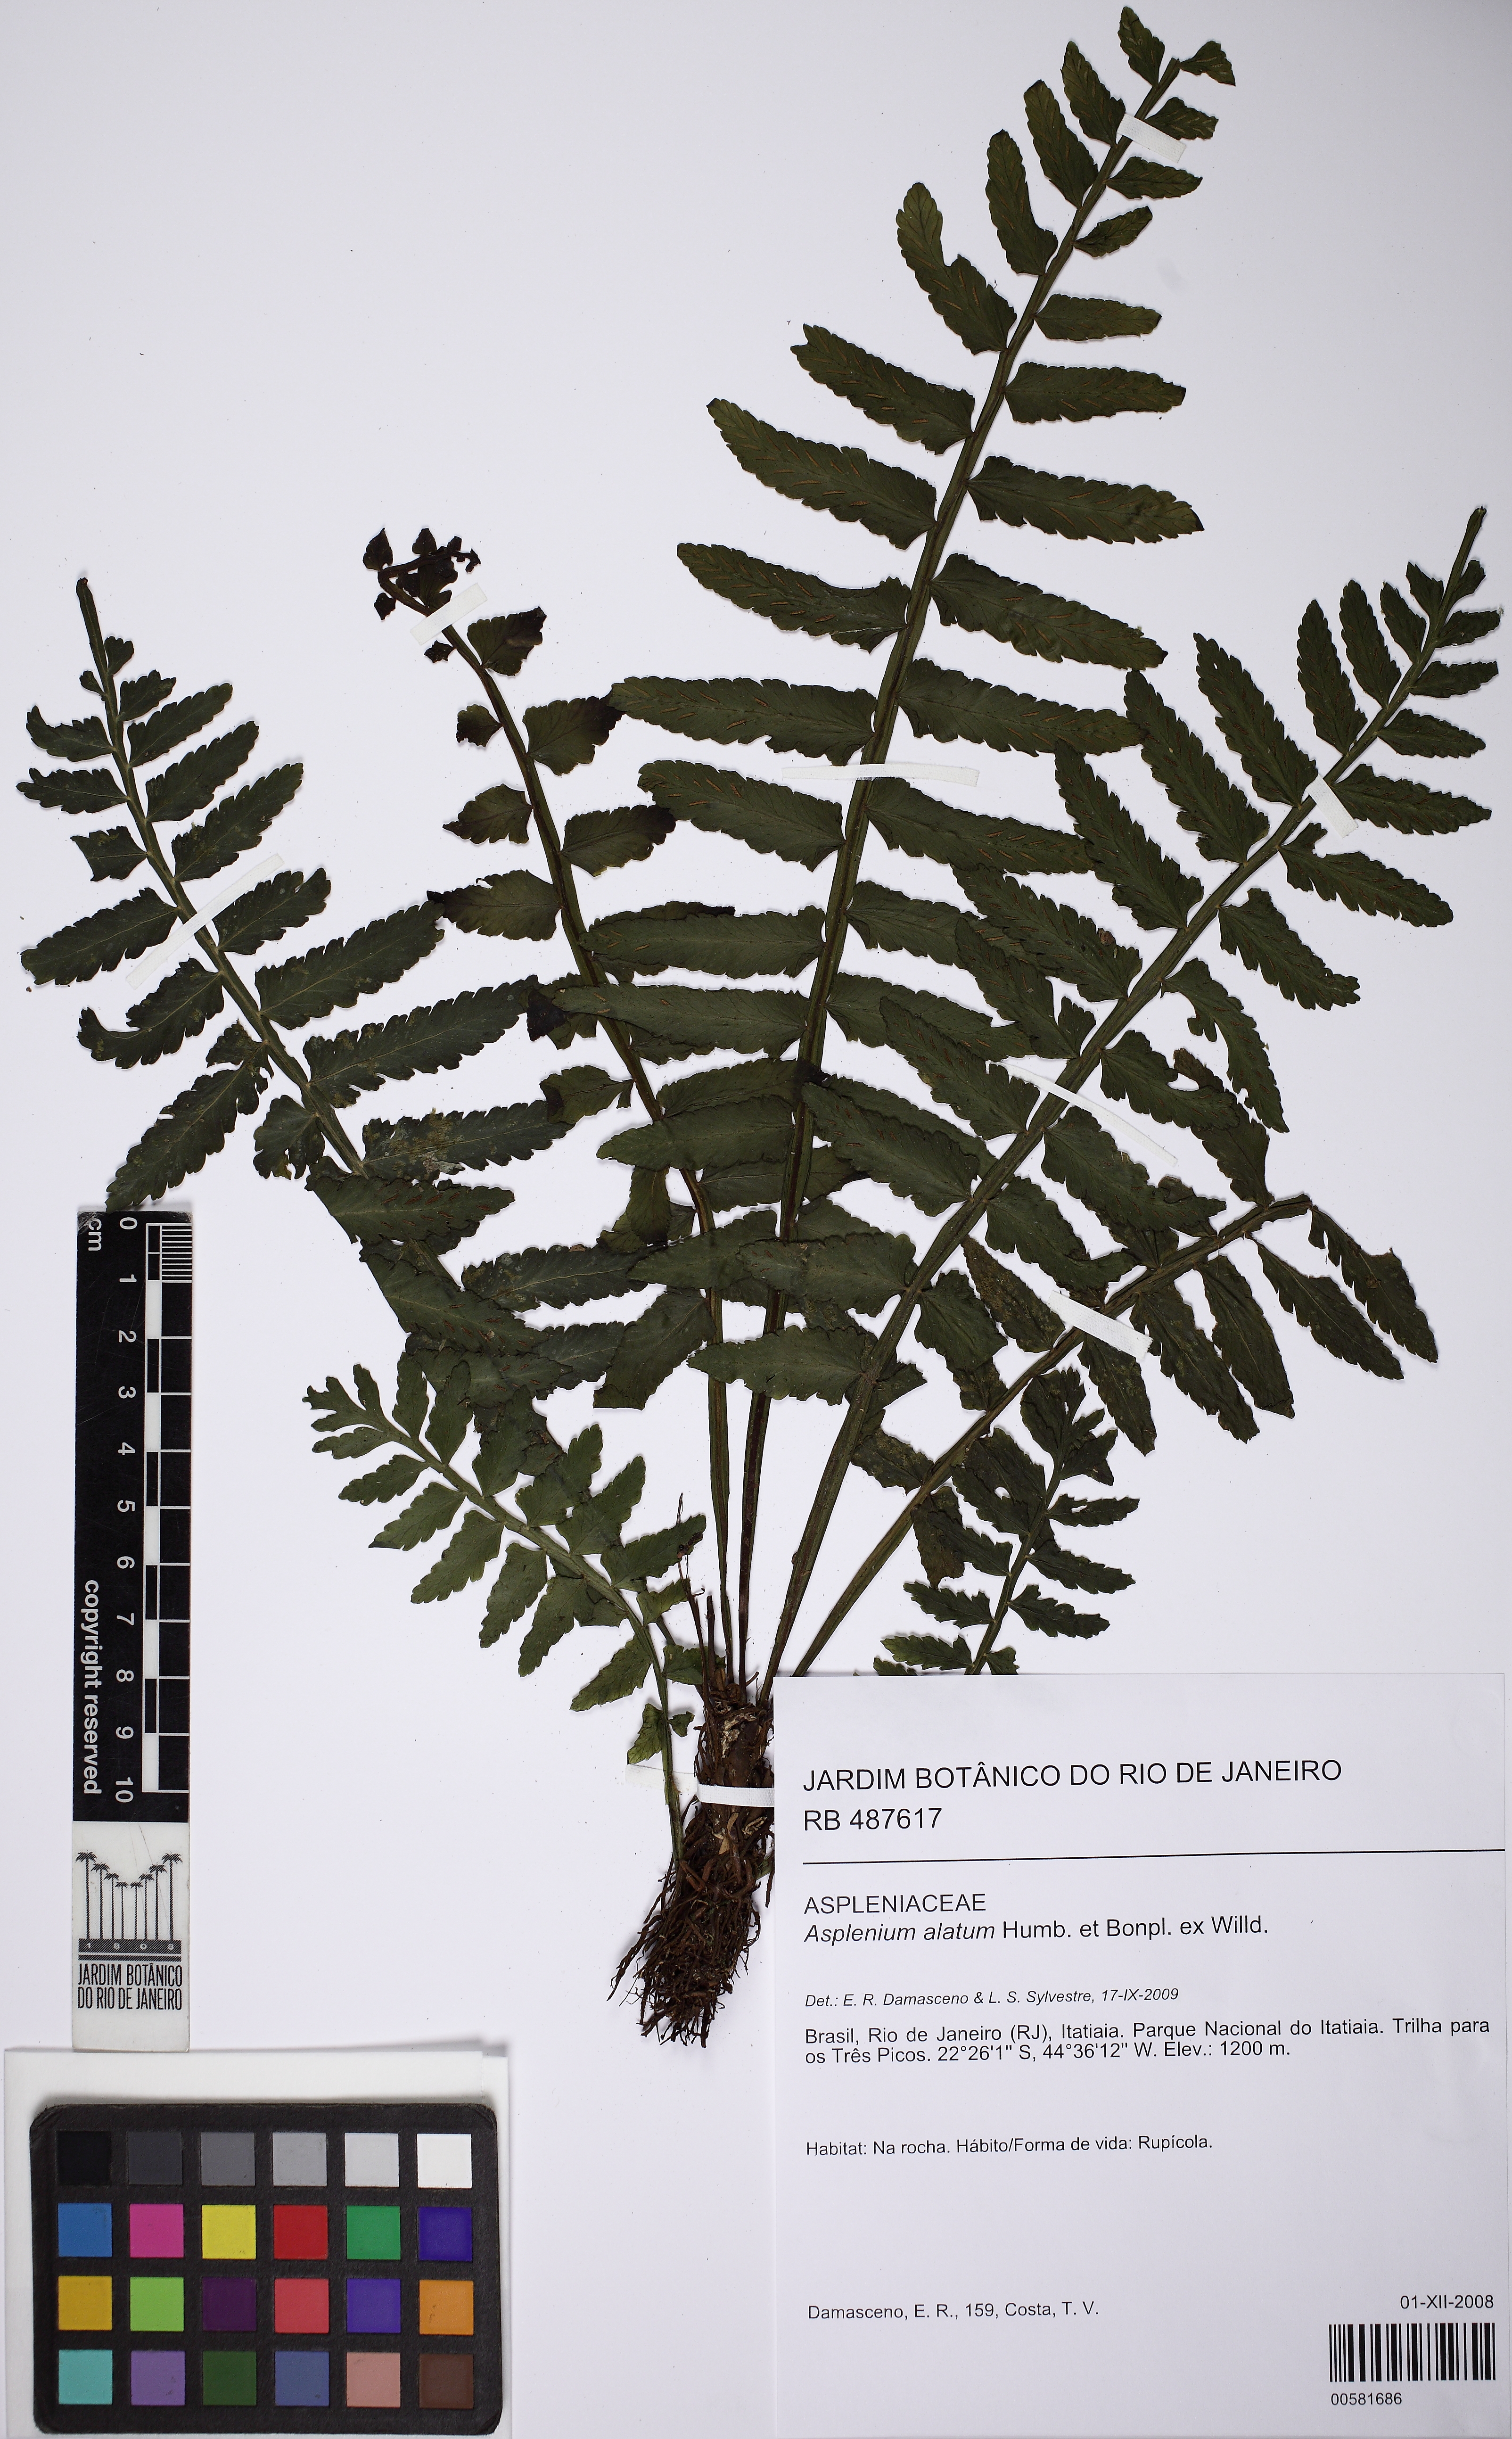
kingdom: Plantae
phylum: Tracheophyta
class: Polypodiopsida
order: Polypodiales
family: Aspleniaceae
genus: Asplenium
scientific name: Asplenium alatum
